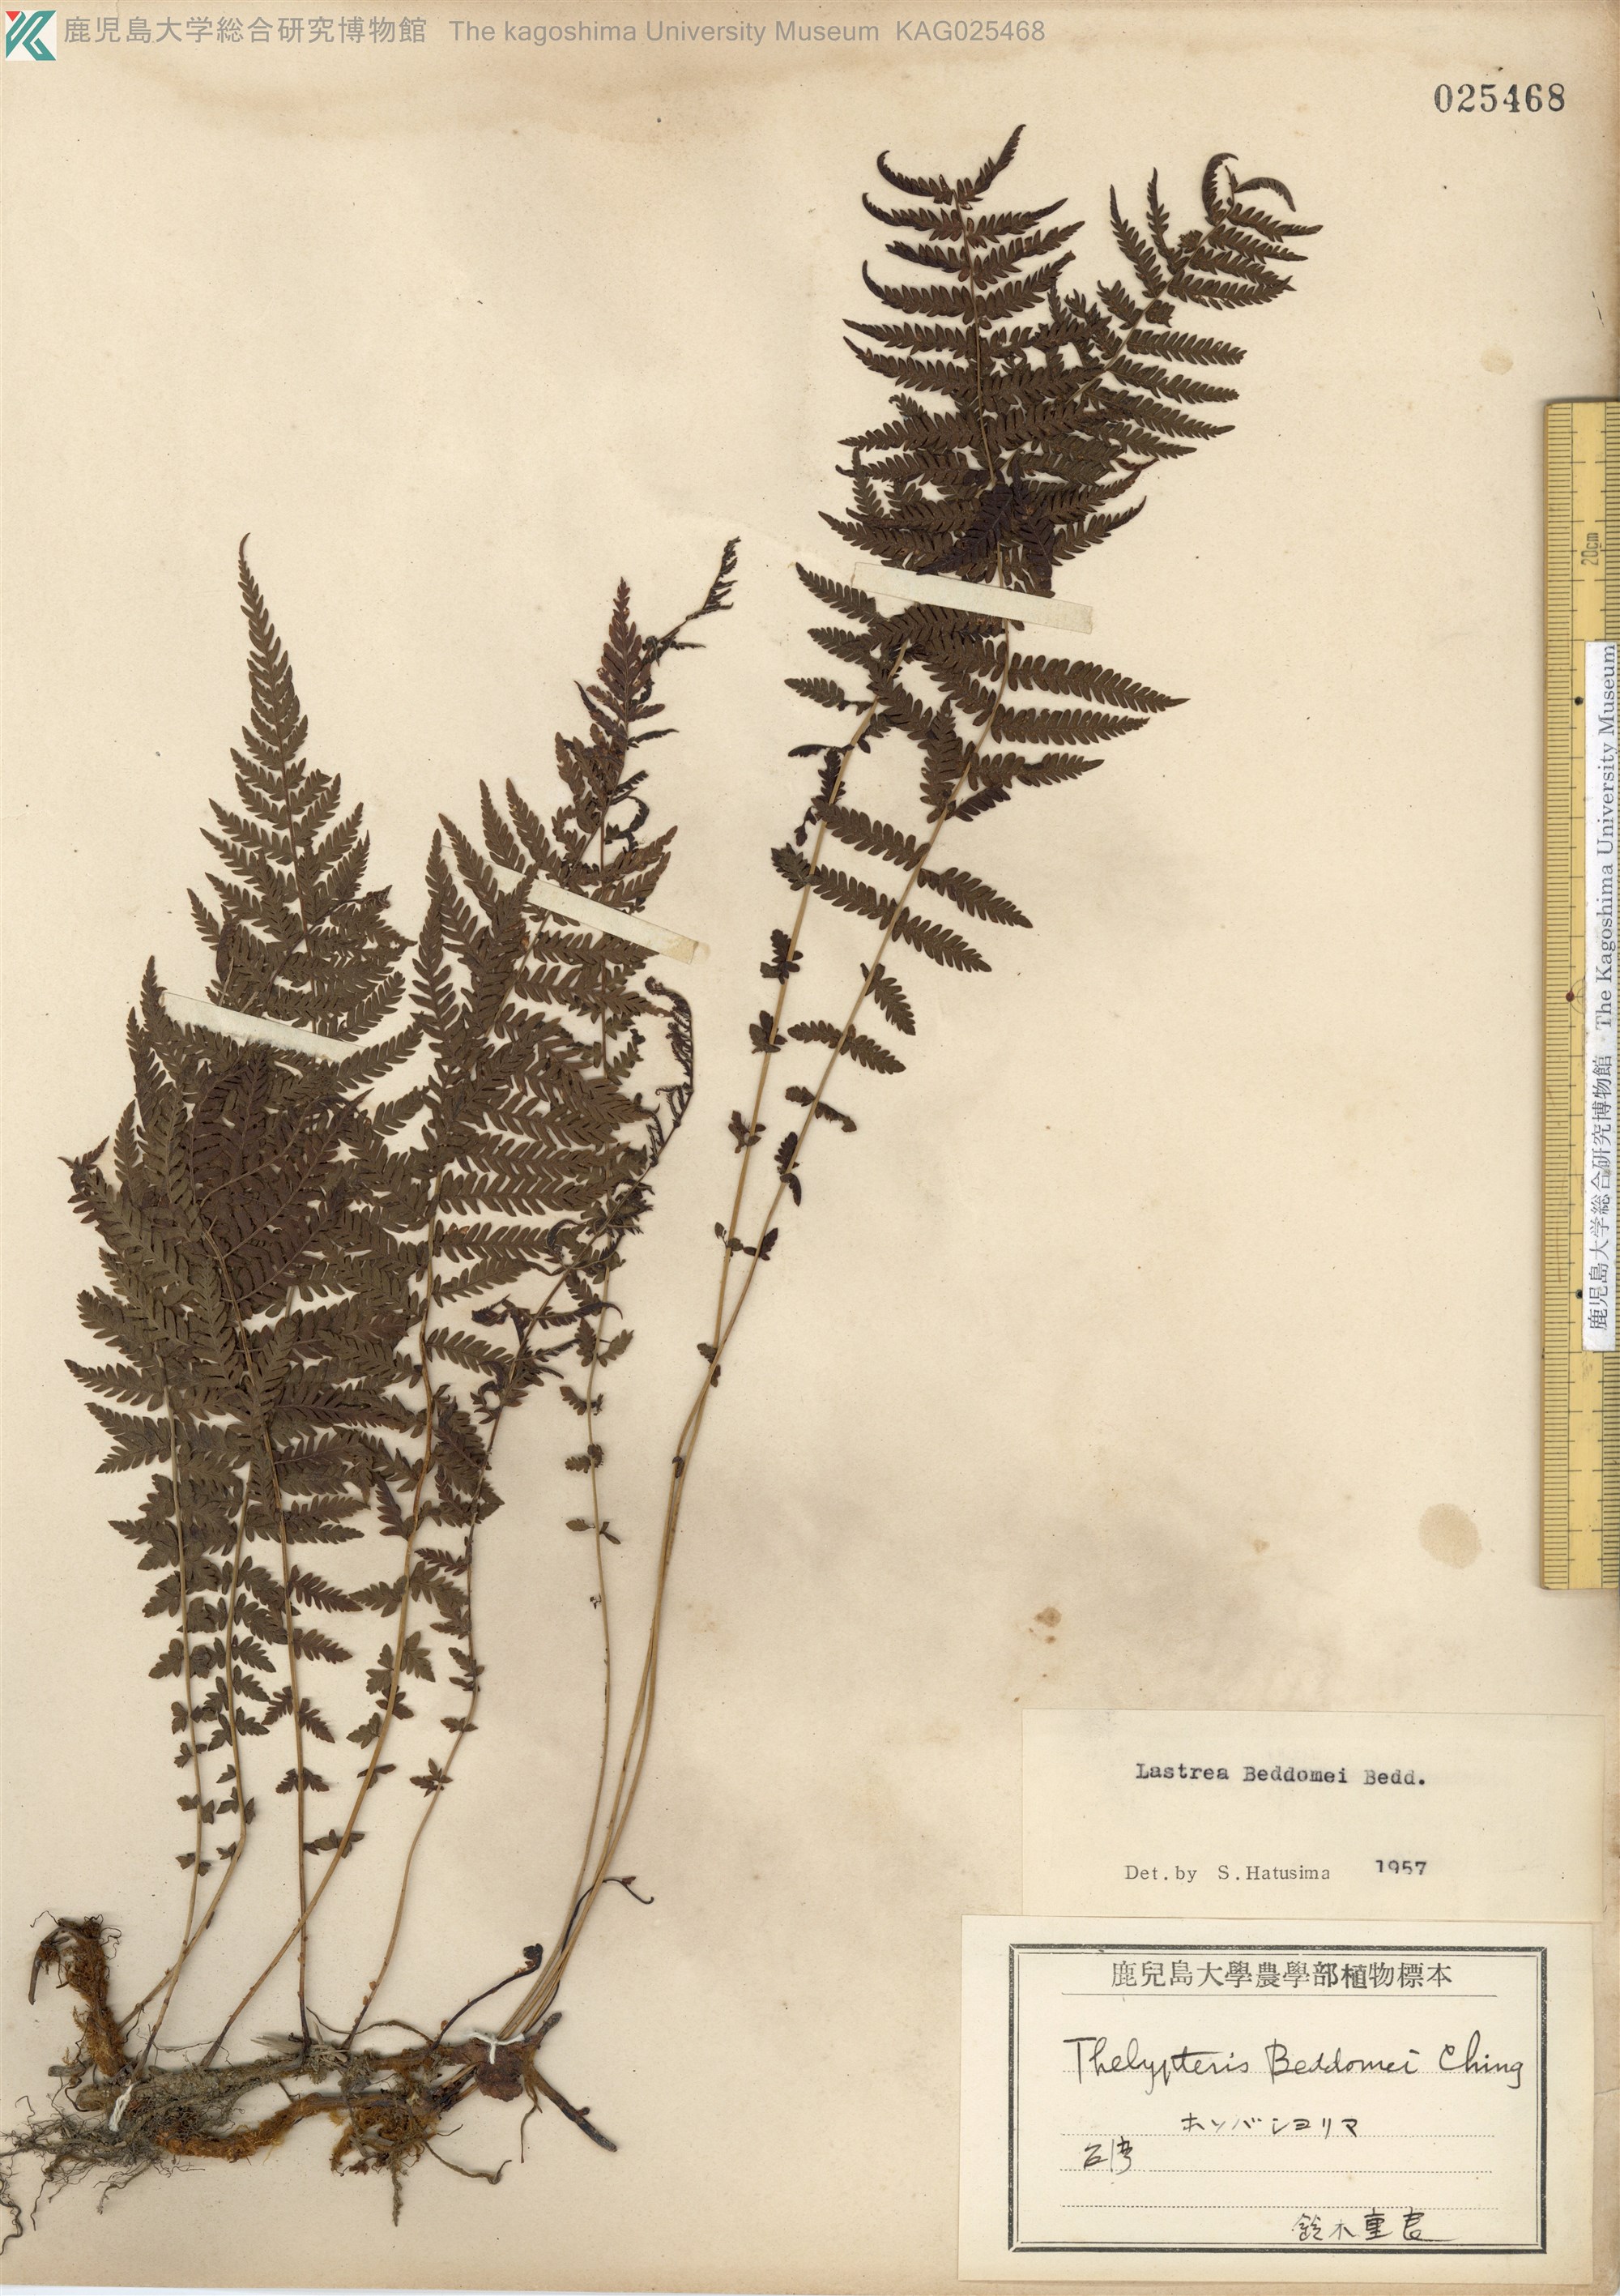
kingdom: Plantae
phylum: Tracheophyta
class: Polypodiopsida
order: Polypodiales
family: Thelypteridaceae
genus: Amauropelta
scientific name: Amauropelta beddomei
